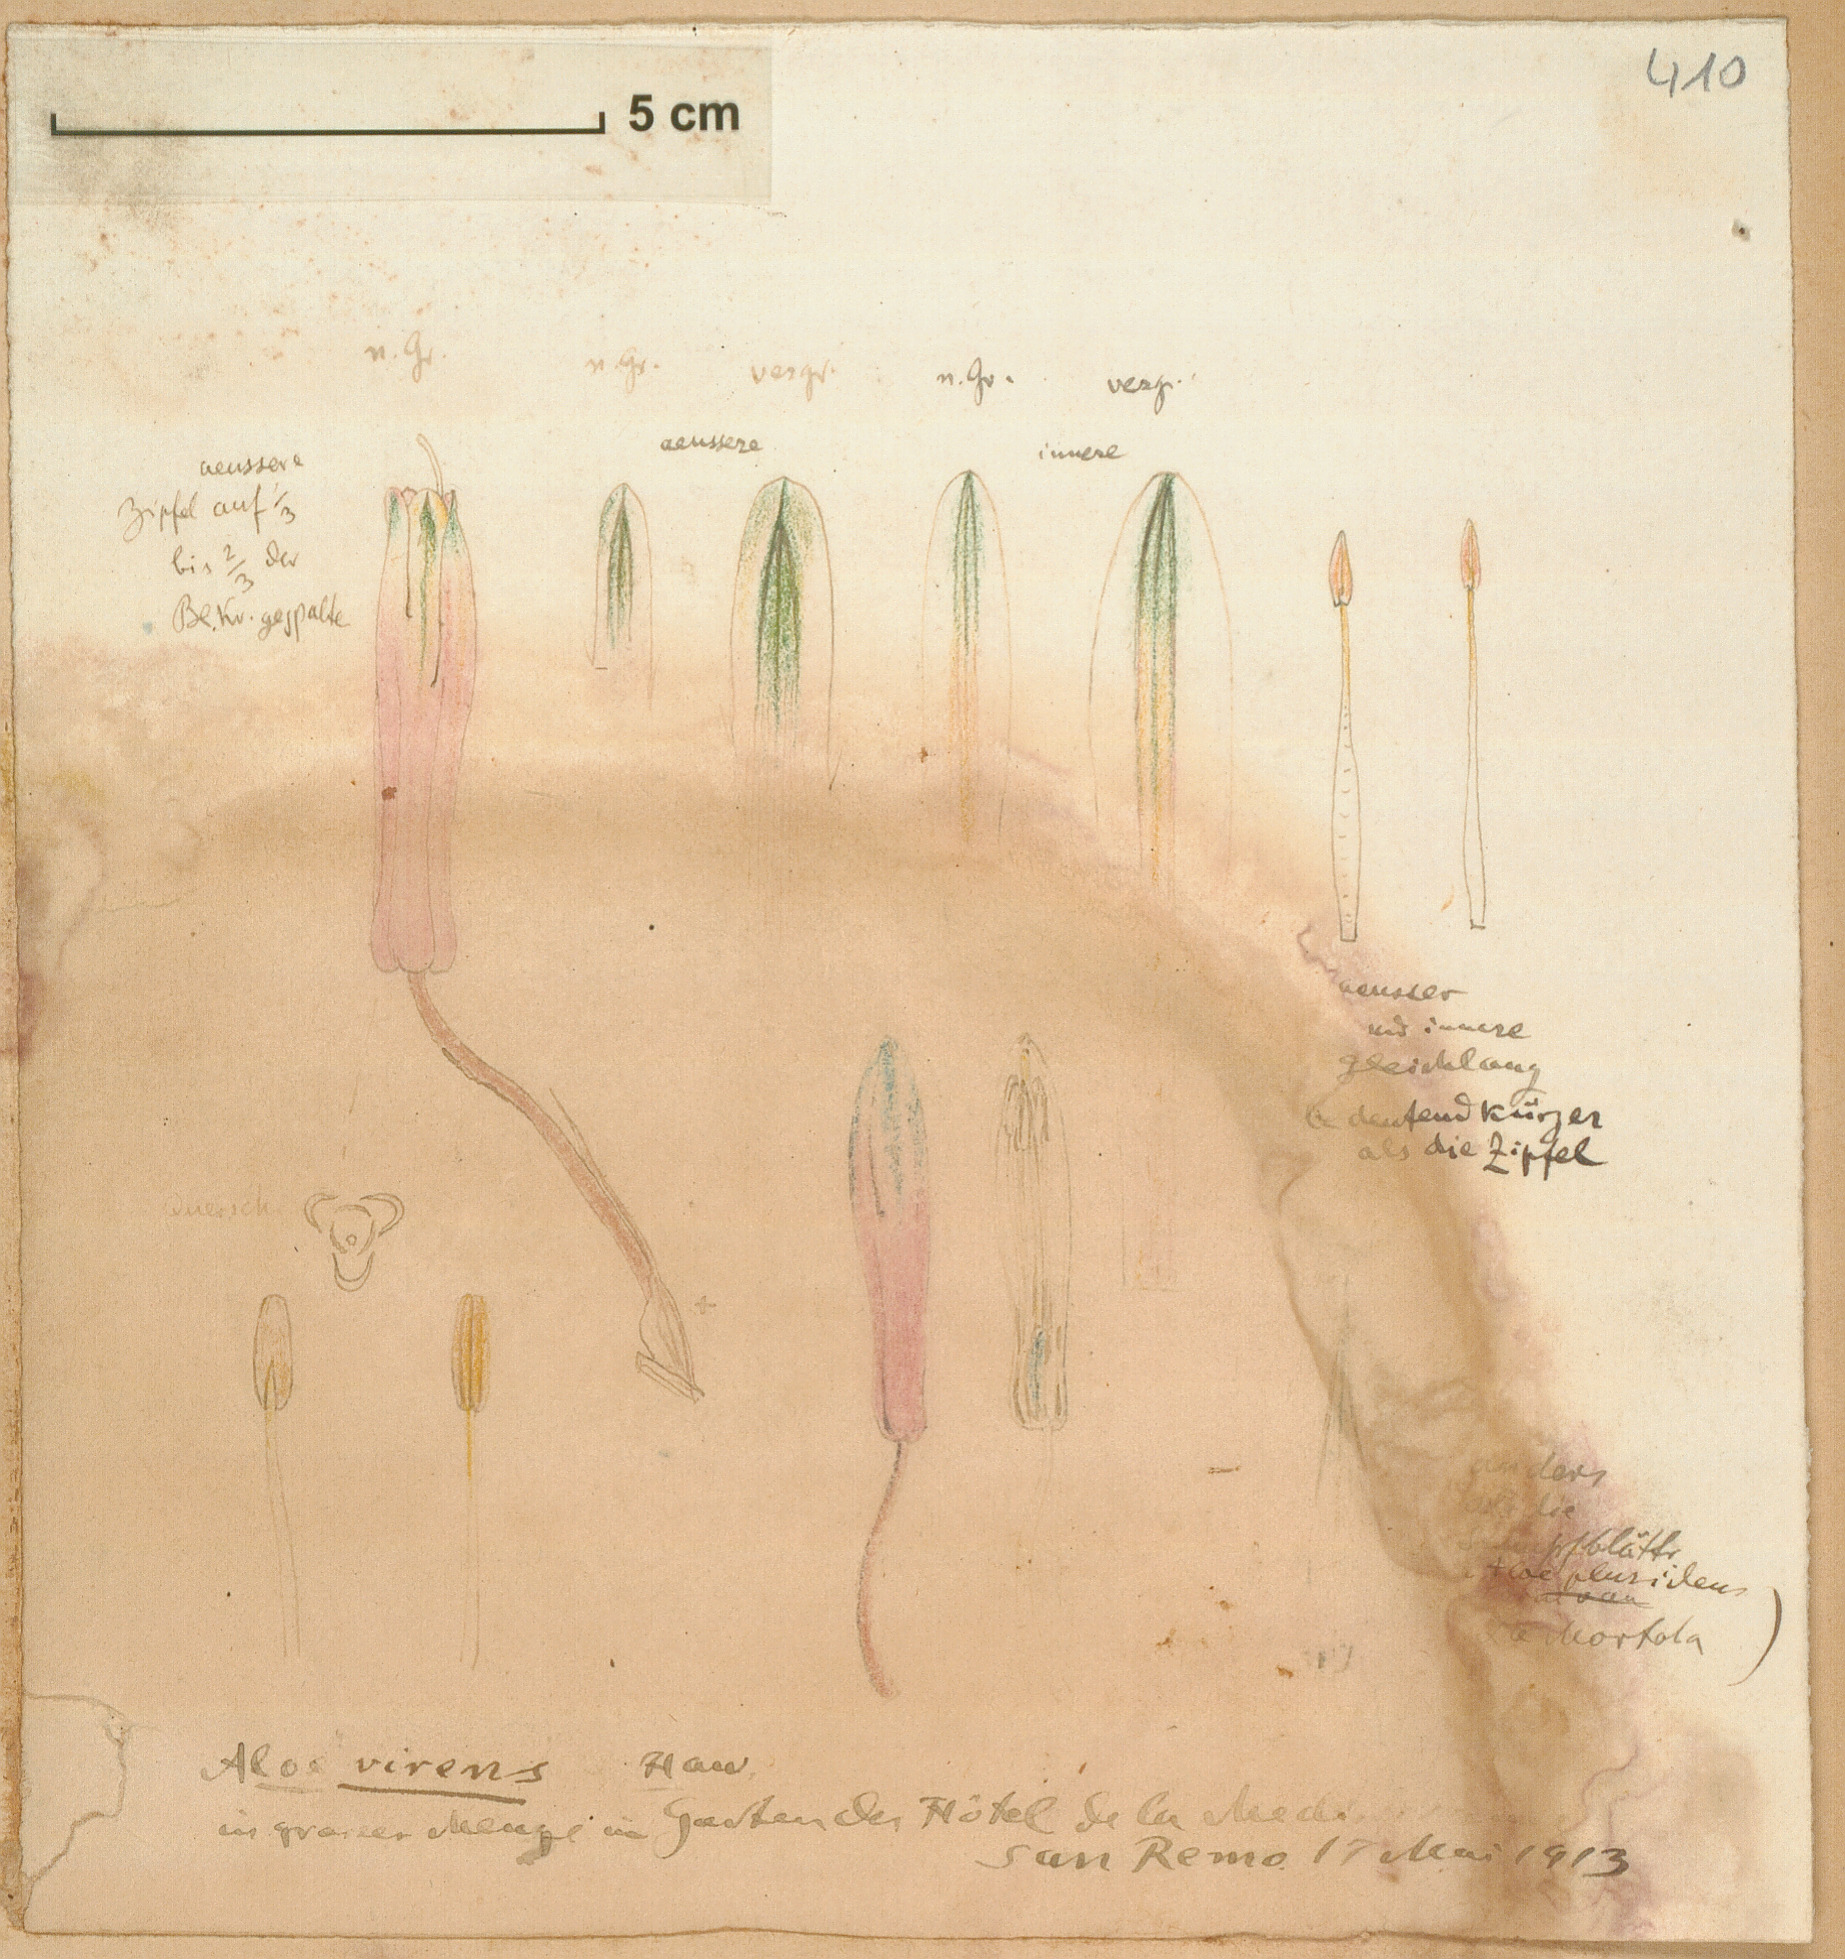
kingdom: Plantae
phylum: Tracheophyta
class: Liliopsida
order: Asparagales
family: Asphodelaceae
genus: Aloe
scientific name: Aloe humilis
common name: Dwarf hedgehog aloe
